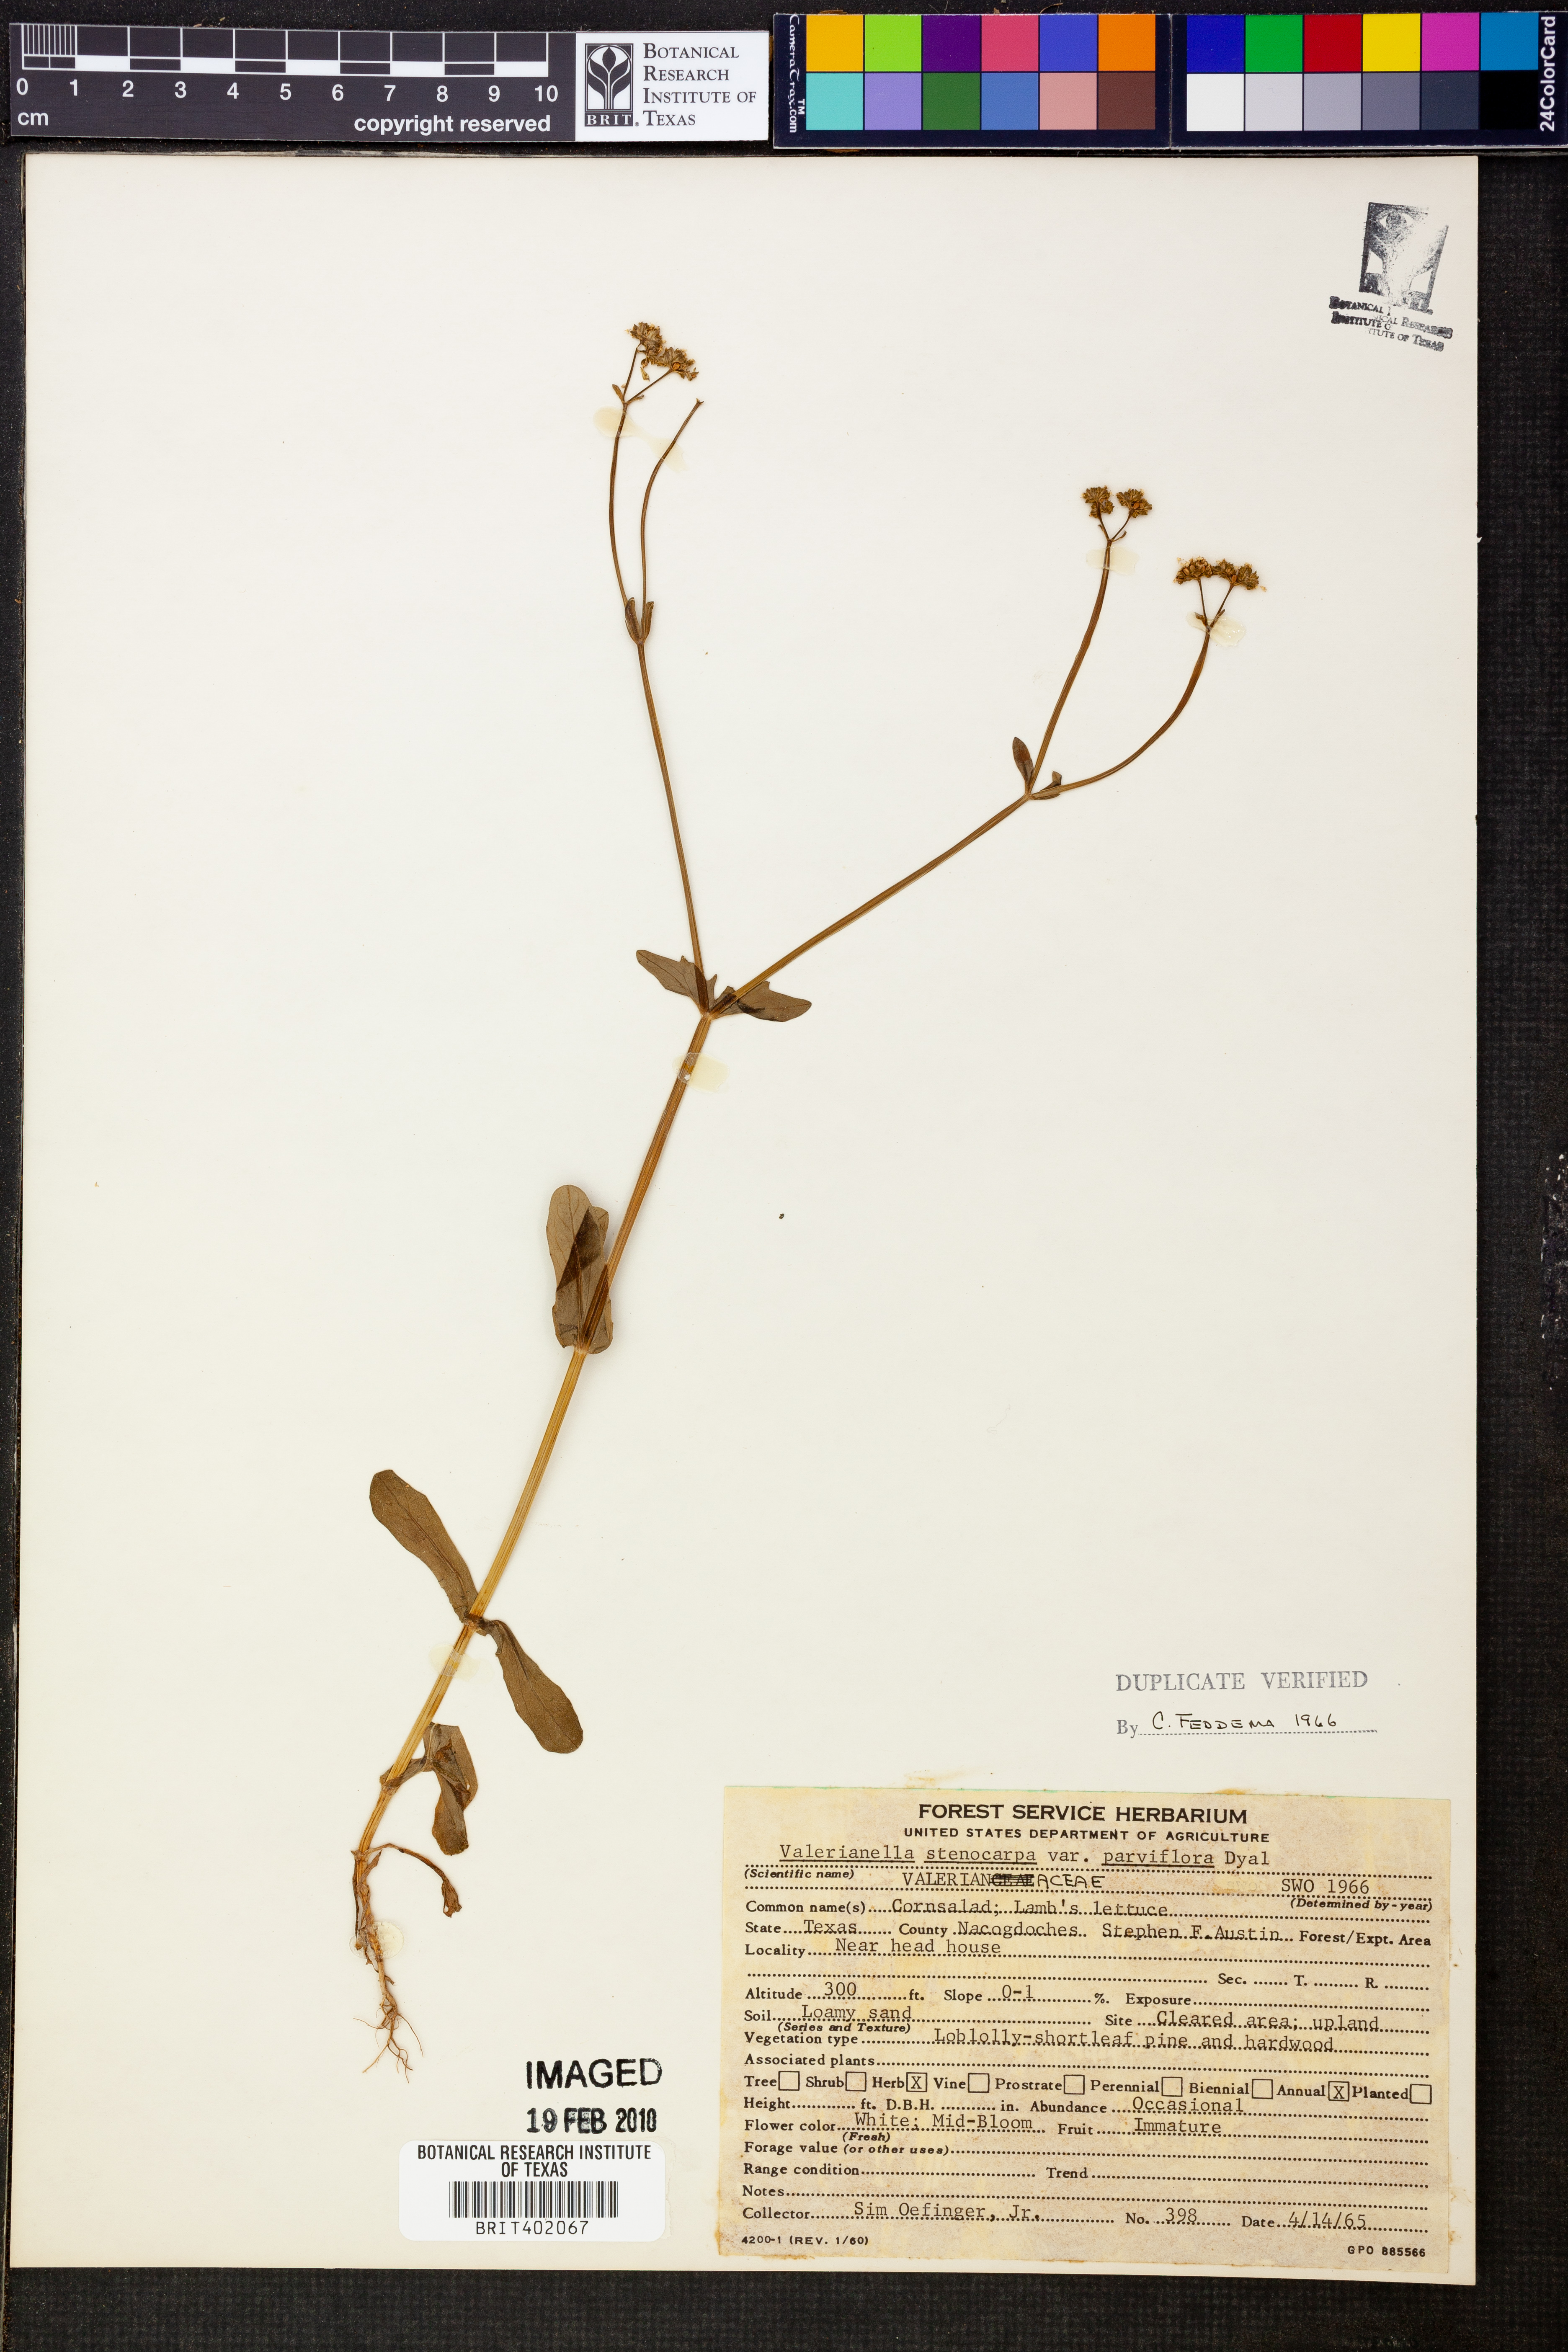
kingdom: Plantae
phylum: Tracheophyta
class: Magnoliopsida
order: Dipsacales
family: Caprifoliaceae
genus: Valerianella
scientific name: Valerianella radiata
